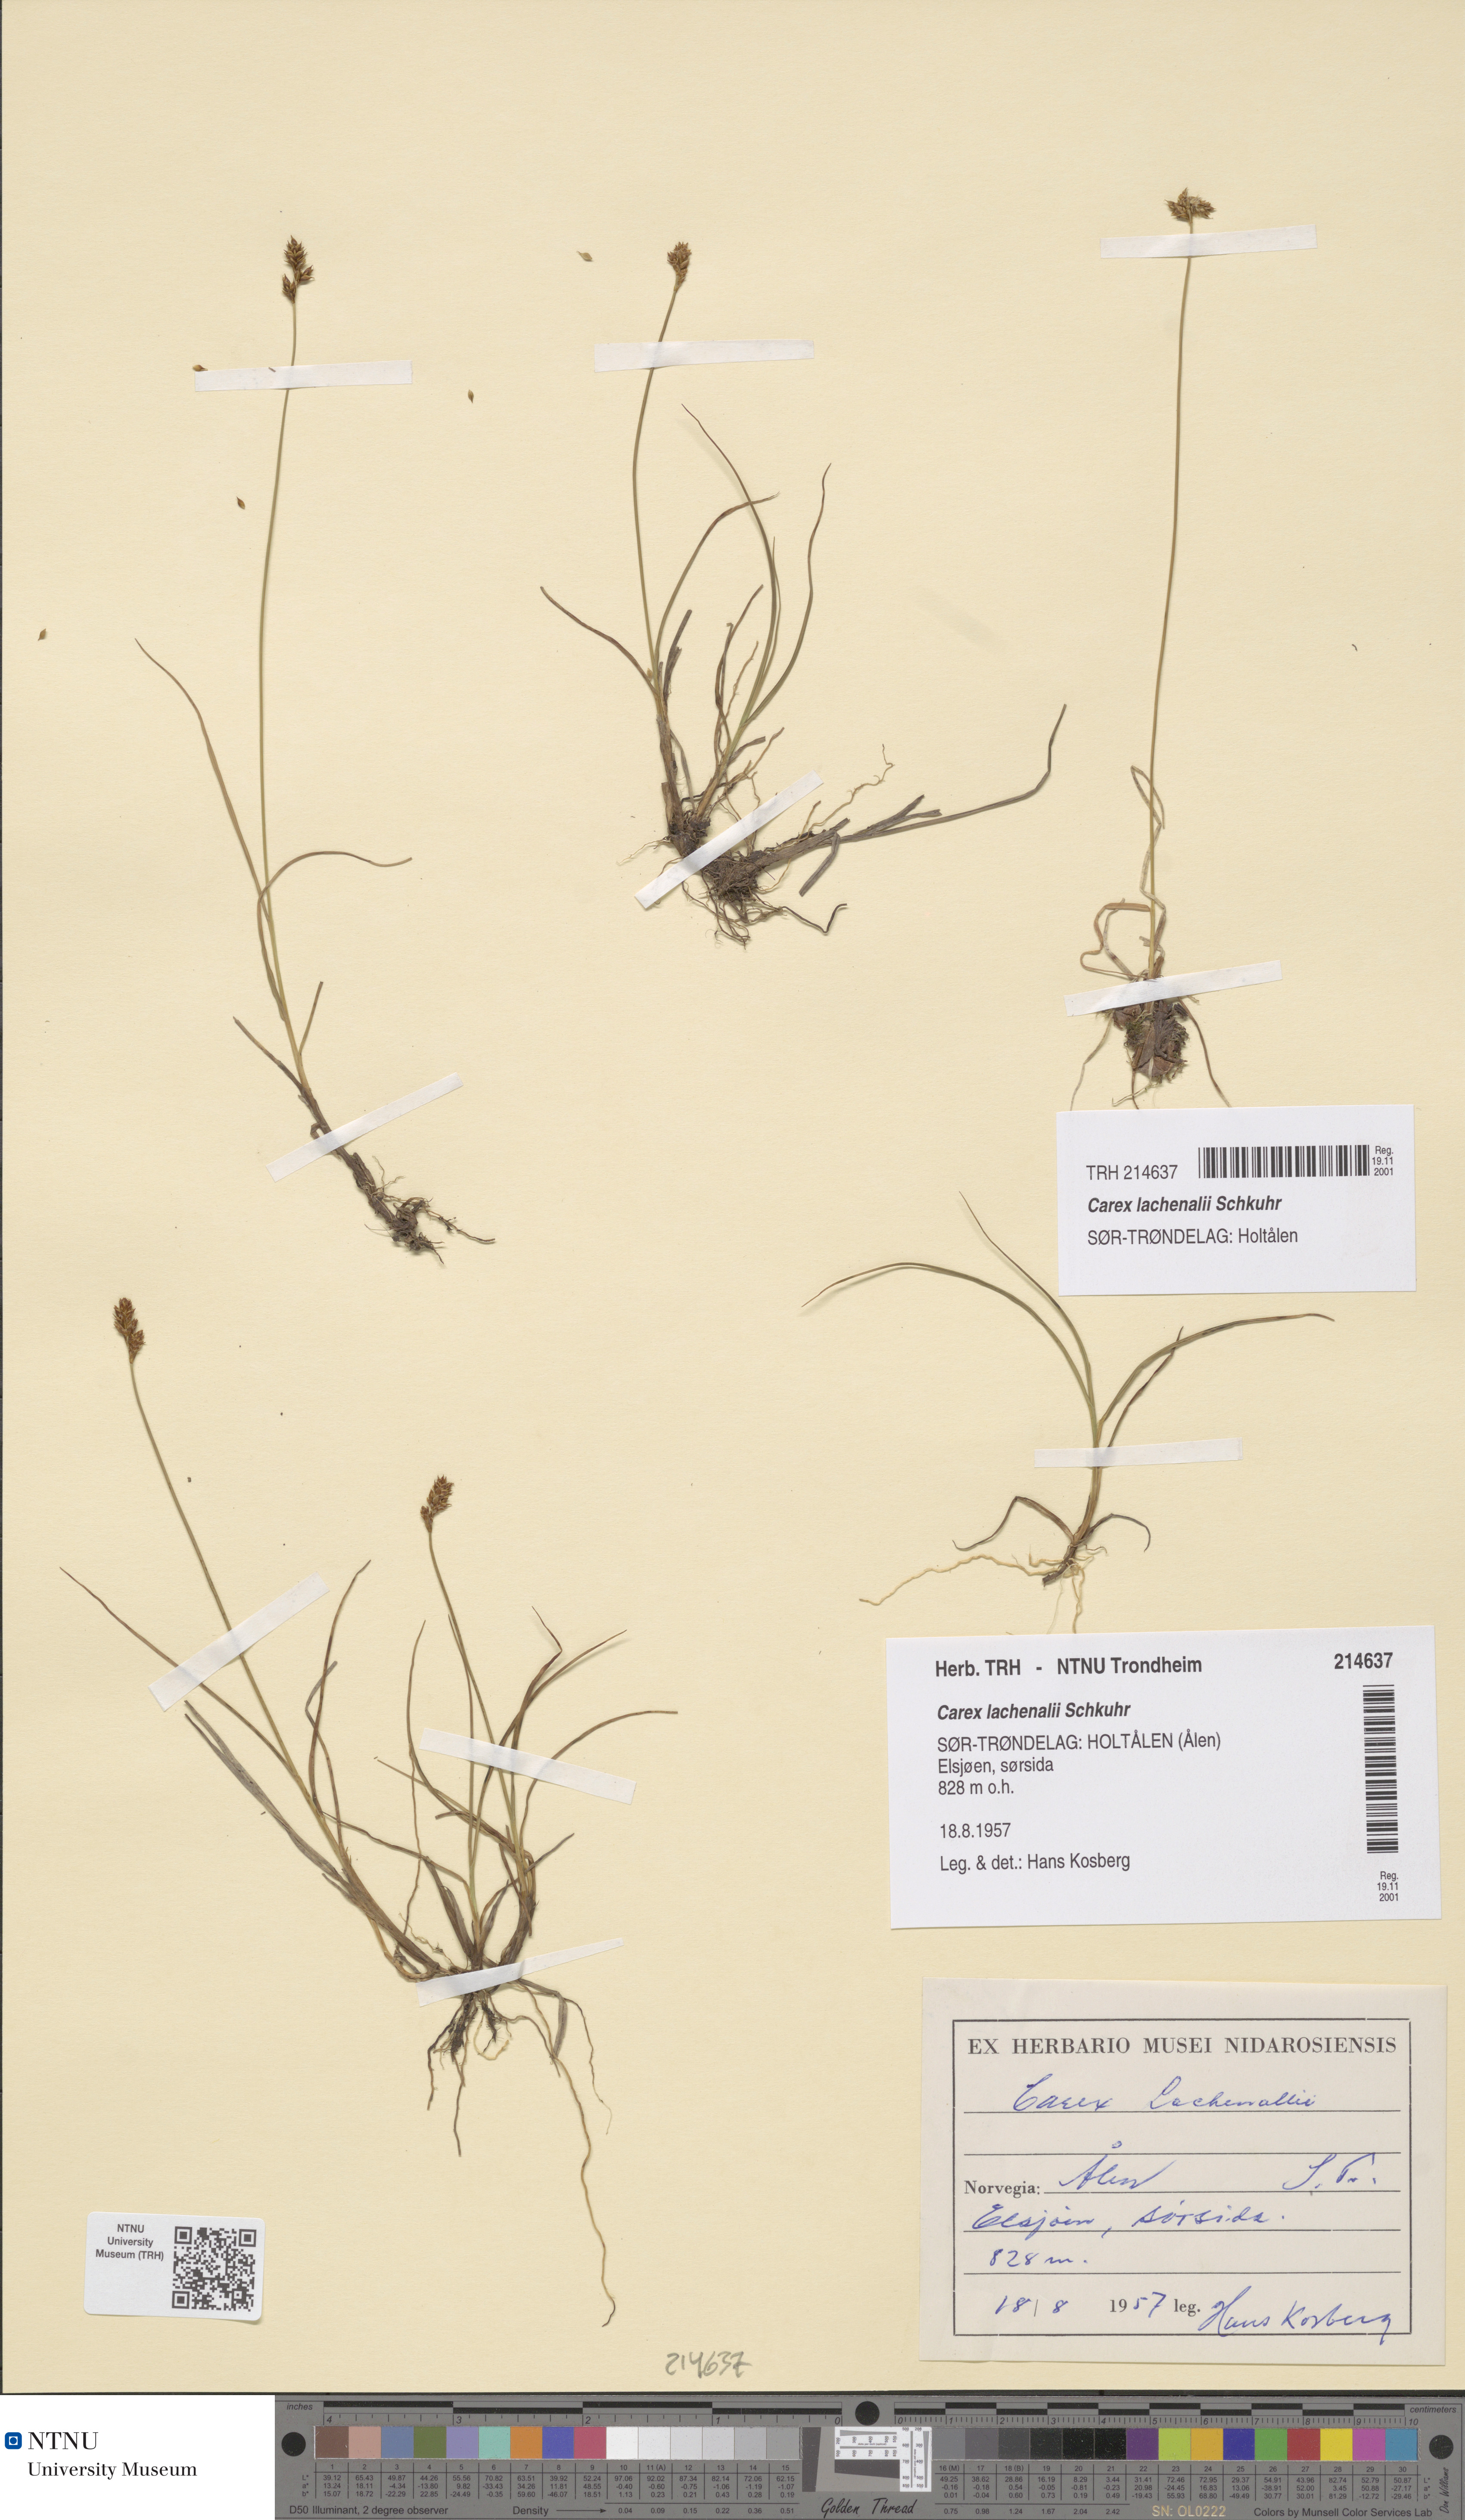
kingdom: Plantae
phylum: Tracheophyta
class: Liliopsida
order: Poales
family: Cyperaceae
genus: Carex
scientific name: Carex lachenalii
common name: Hare's-foot sedge
